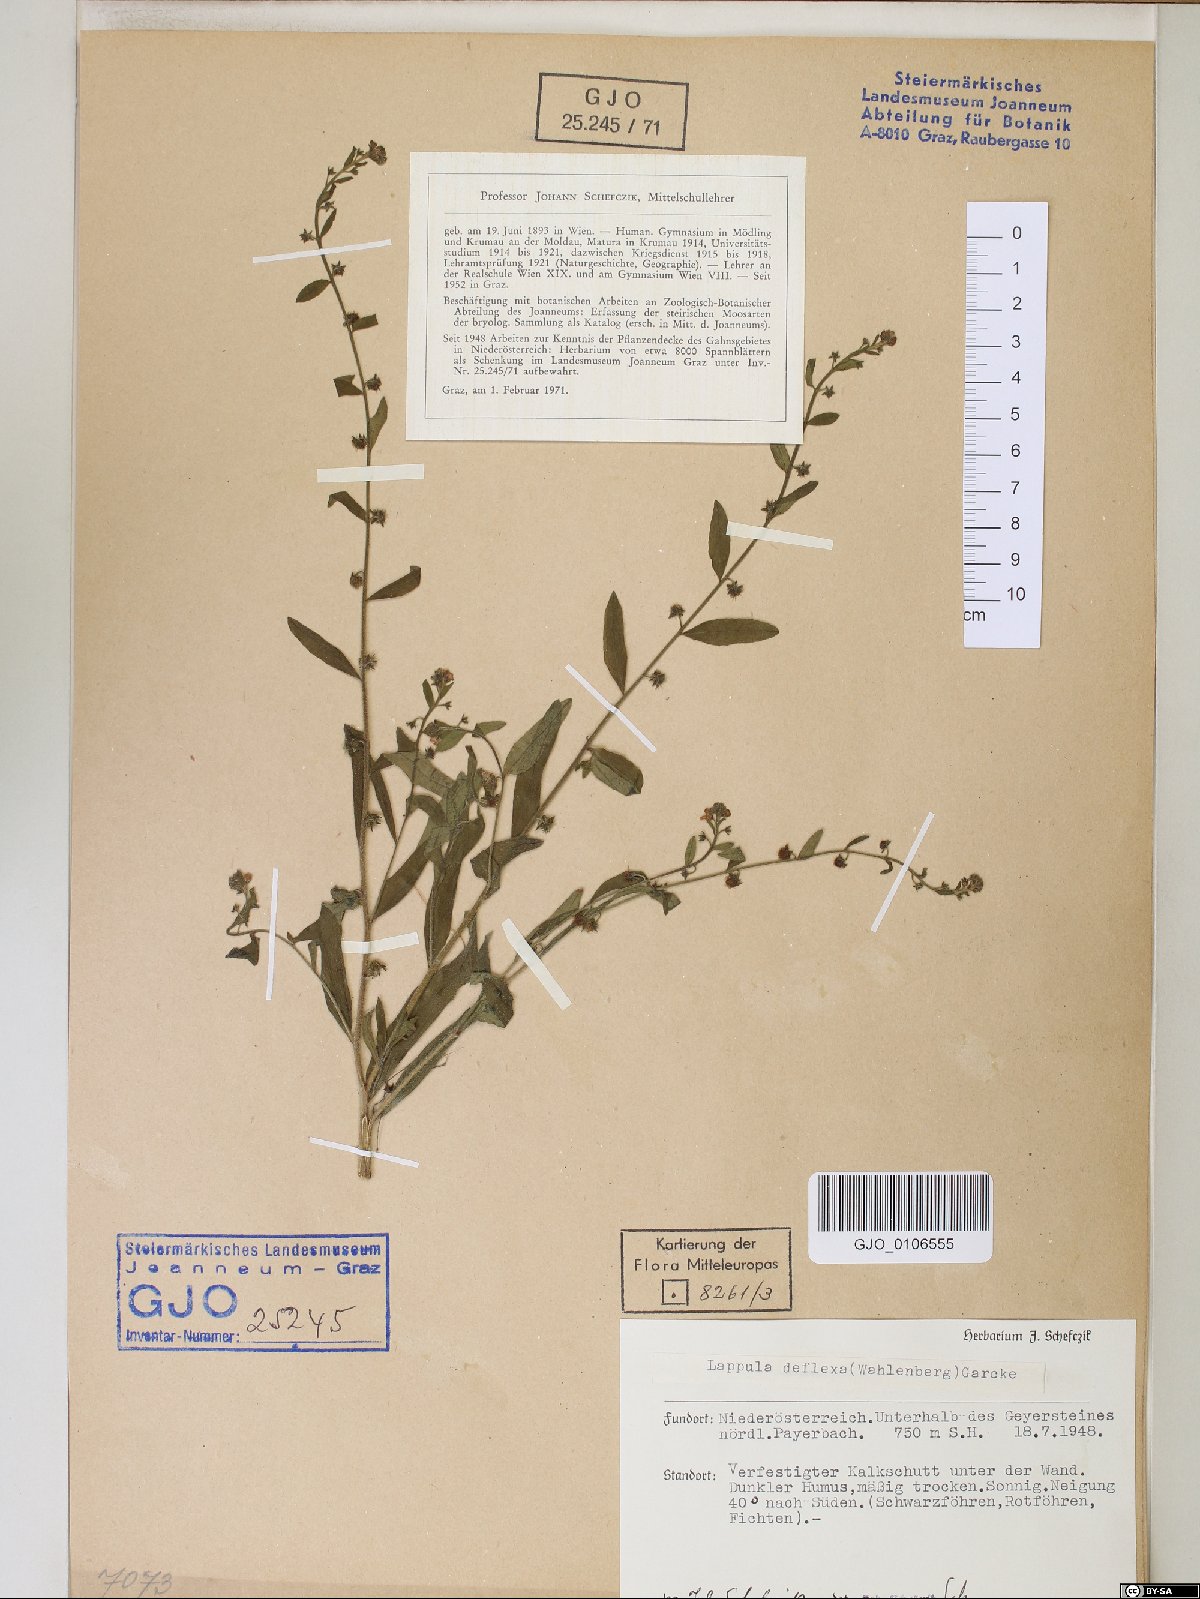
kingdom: Plantae
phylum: Tracheophyta
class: Magnoliopsida
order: Boraginales
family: Boraginaceae
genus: Hackelia
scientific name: Hackelia deflexa
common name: Nodding stickseed
